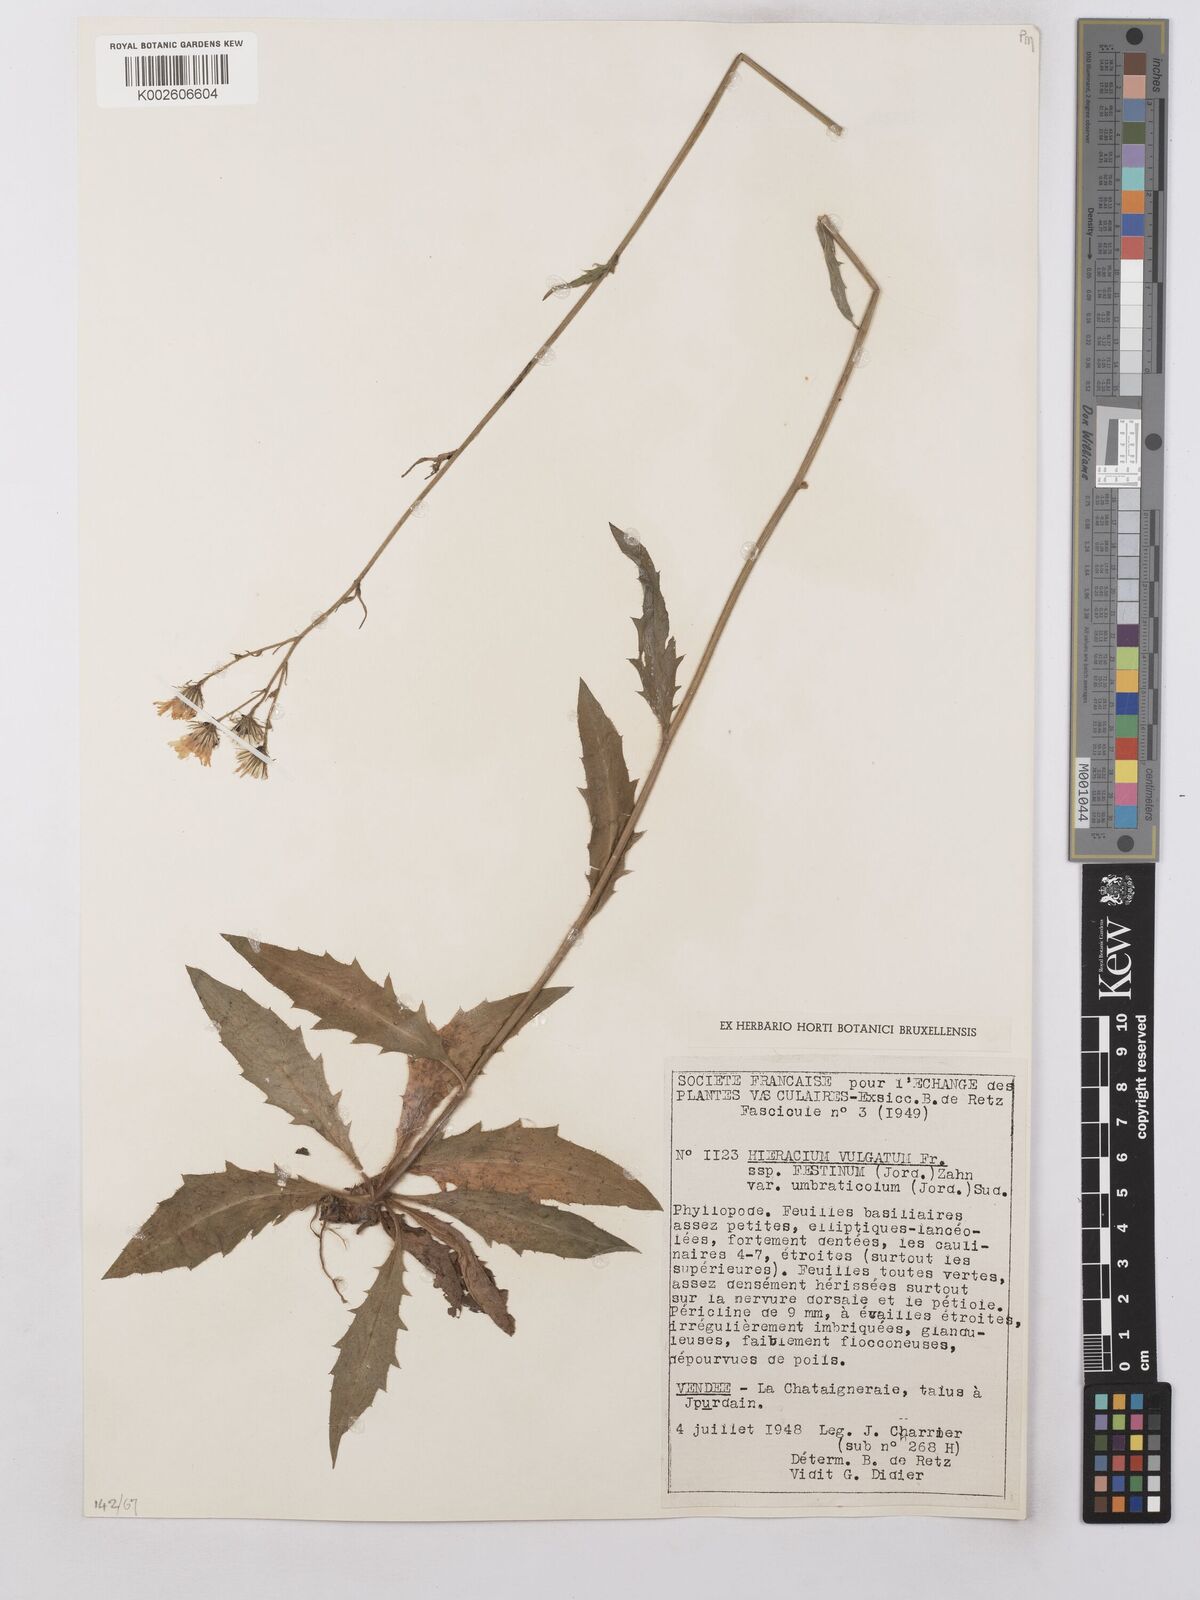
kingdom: Plantae
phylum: Tracheophyta
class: Magnoliopsida
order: Asterales
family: Asteraceae
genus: Hieracium
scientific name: Hieracium lachenalii
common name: Common hawkweed
